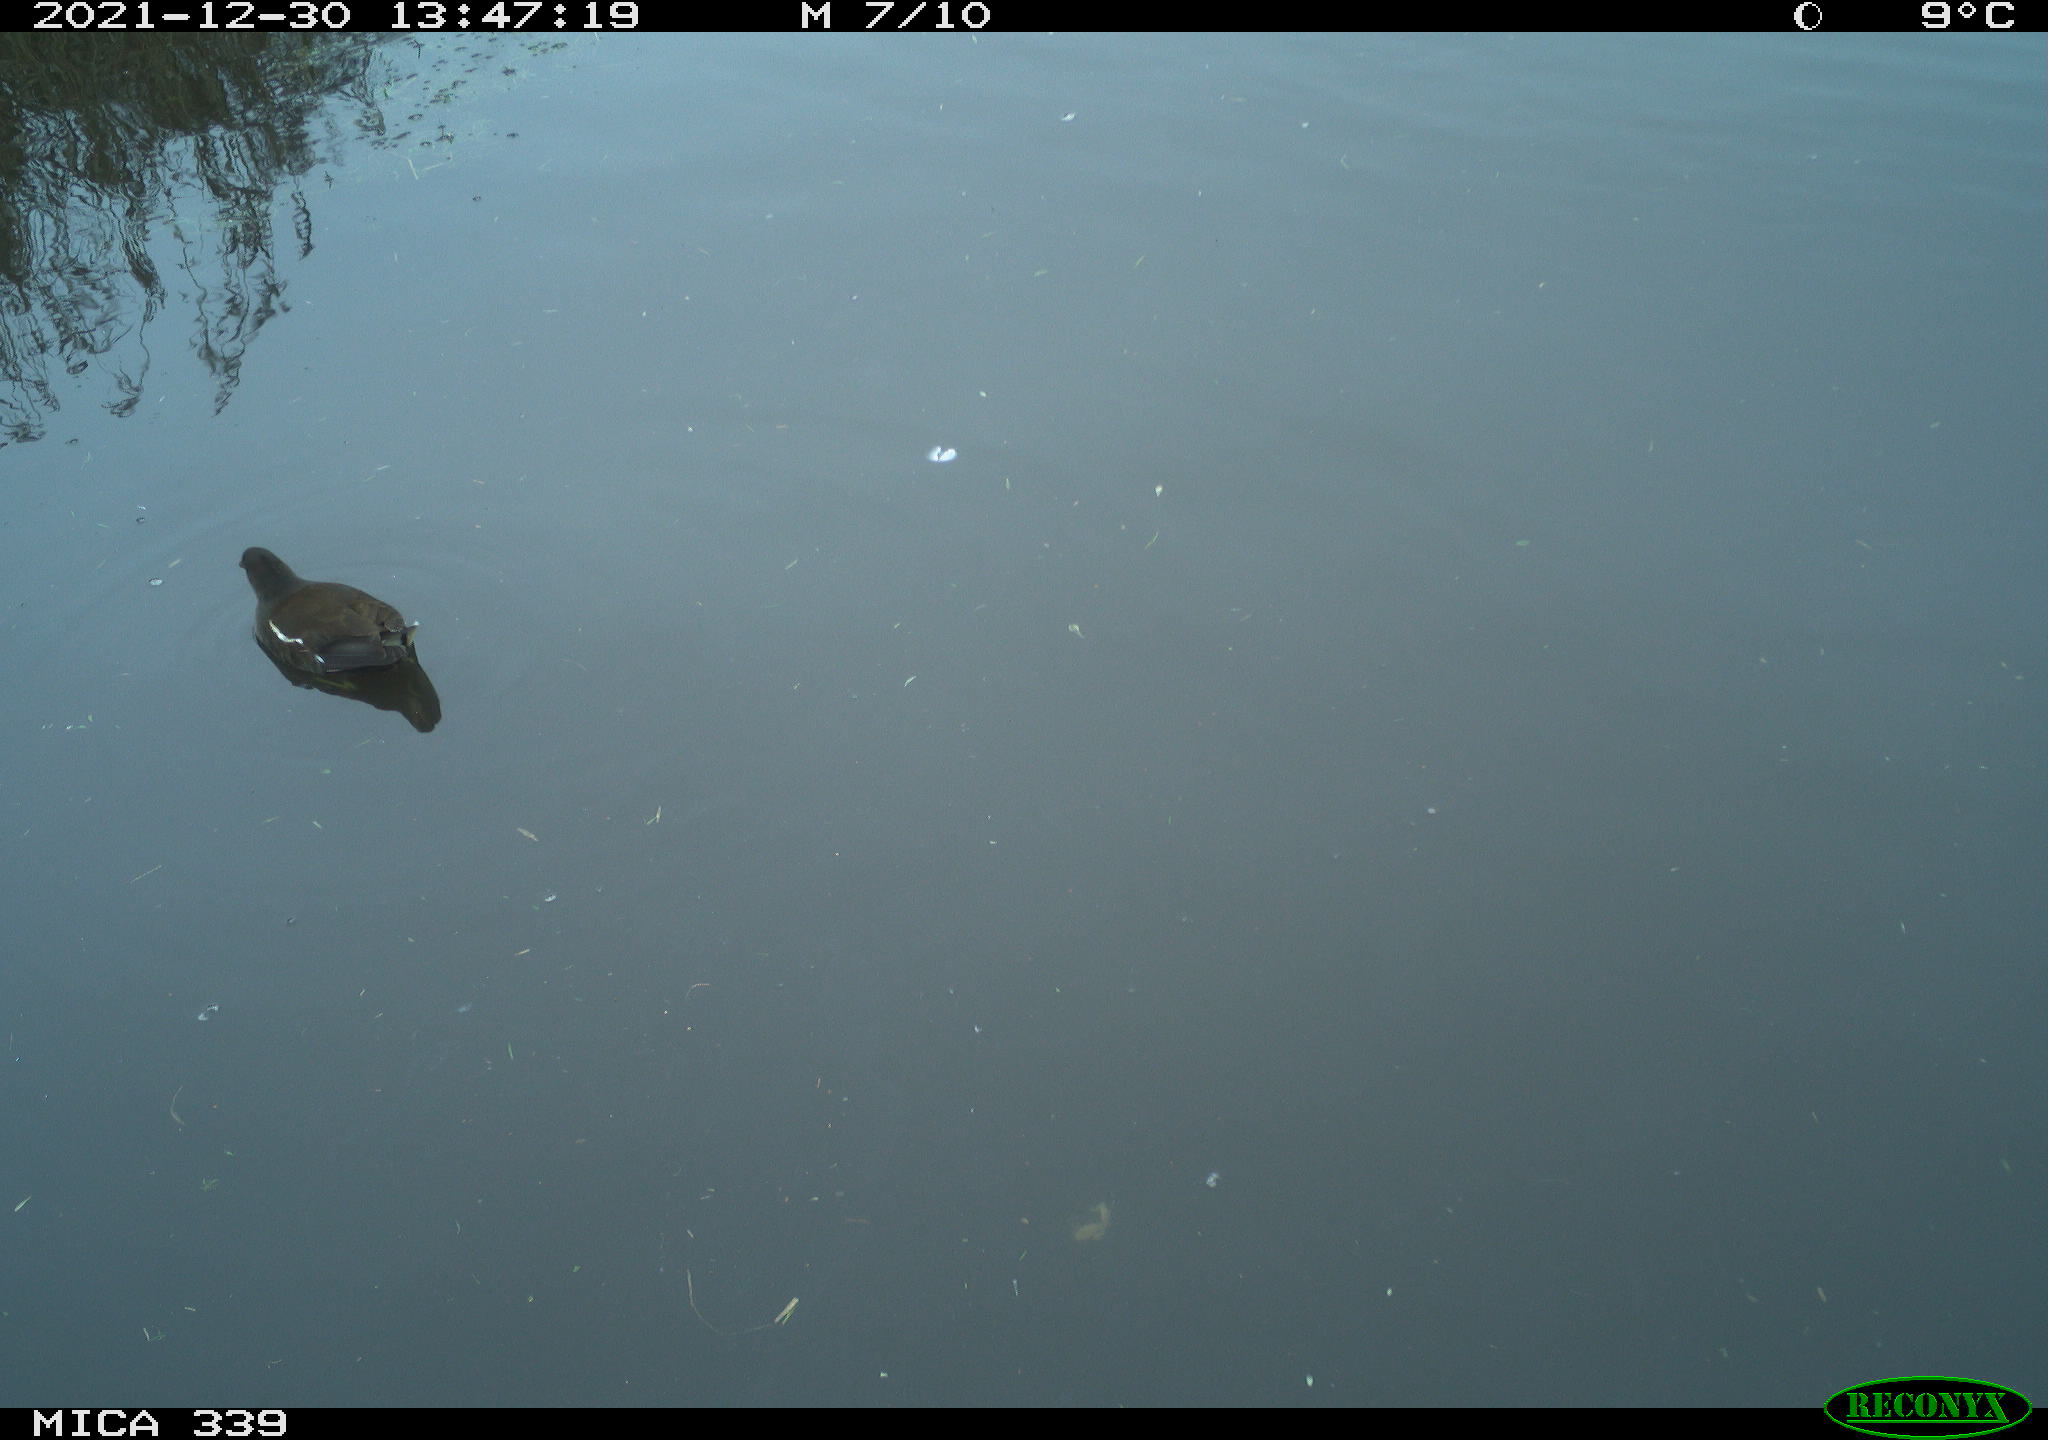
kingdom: Animalia
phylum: Chordata
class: Aves
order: Gruiformes
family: Rallidae
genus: Gallinula
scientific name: Gallinula chloropus
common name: Common moorhen
